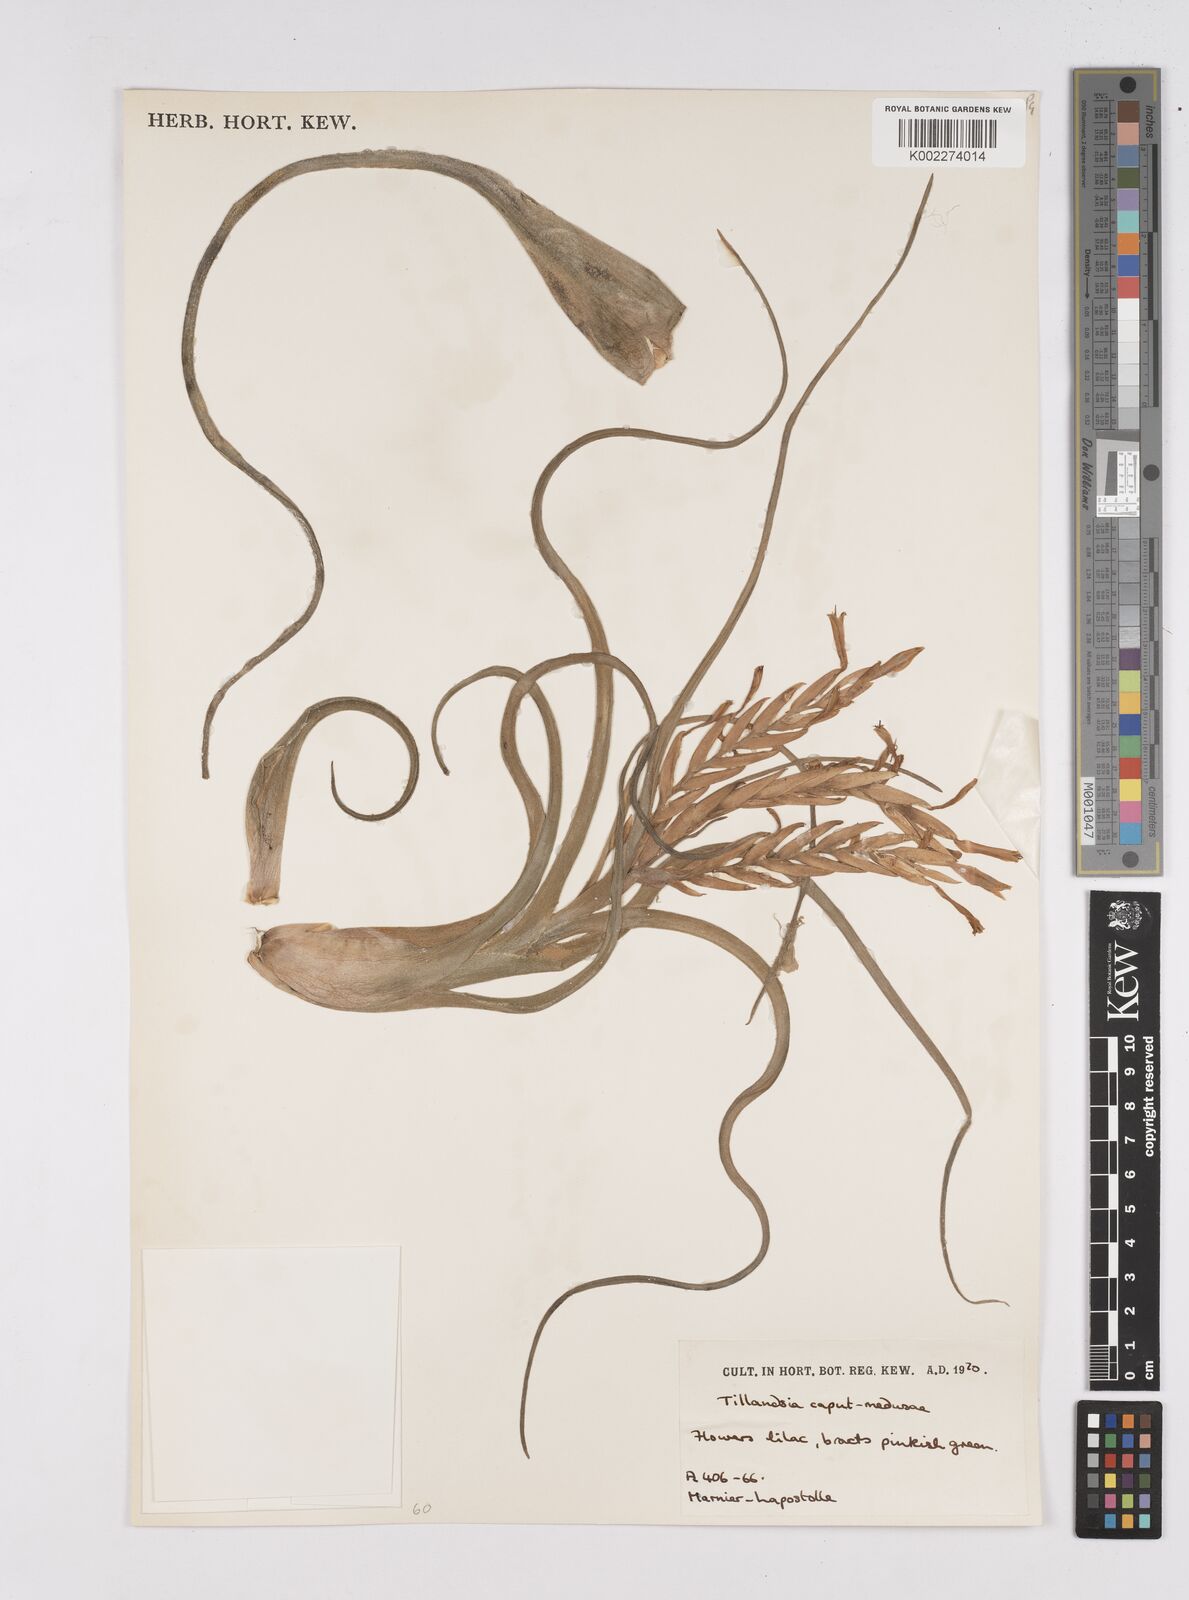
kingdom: Plantae
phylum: Tracheophyta
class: Liliopsida
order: Poales
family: Bromeliaceae
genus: Tillandsia
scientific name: Tillandsia caput-medusae
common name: Octopus plant
